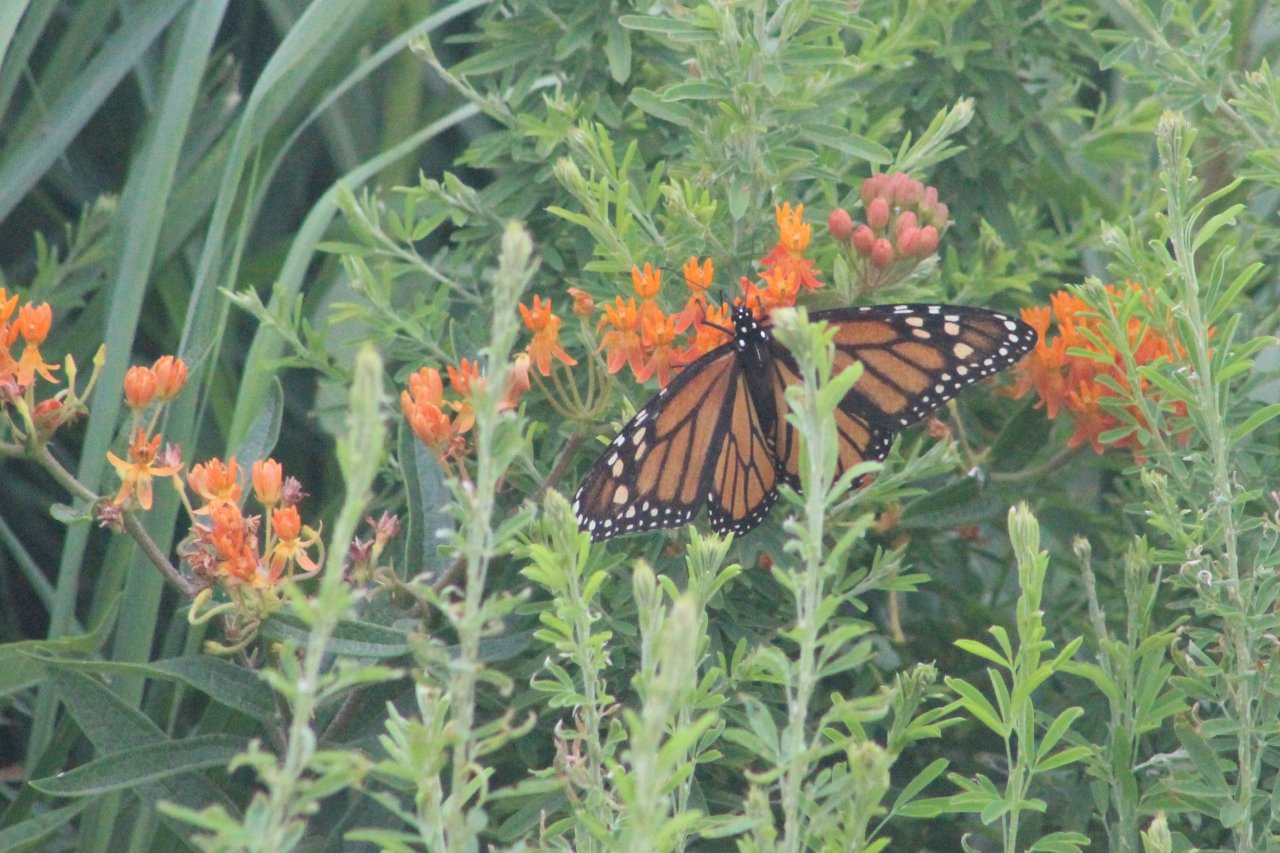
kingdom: Animalia
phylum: Arthropoda
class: Insecta
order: Lepidoptera
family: Nymphalidae
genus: Danaus
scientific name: Danaus plexippus
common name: Monarch
